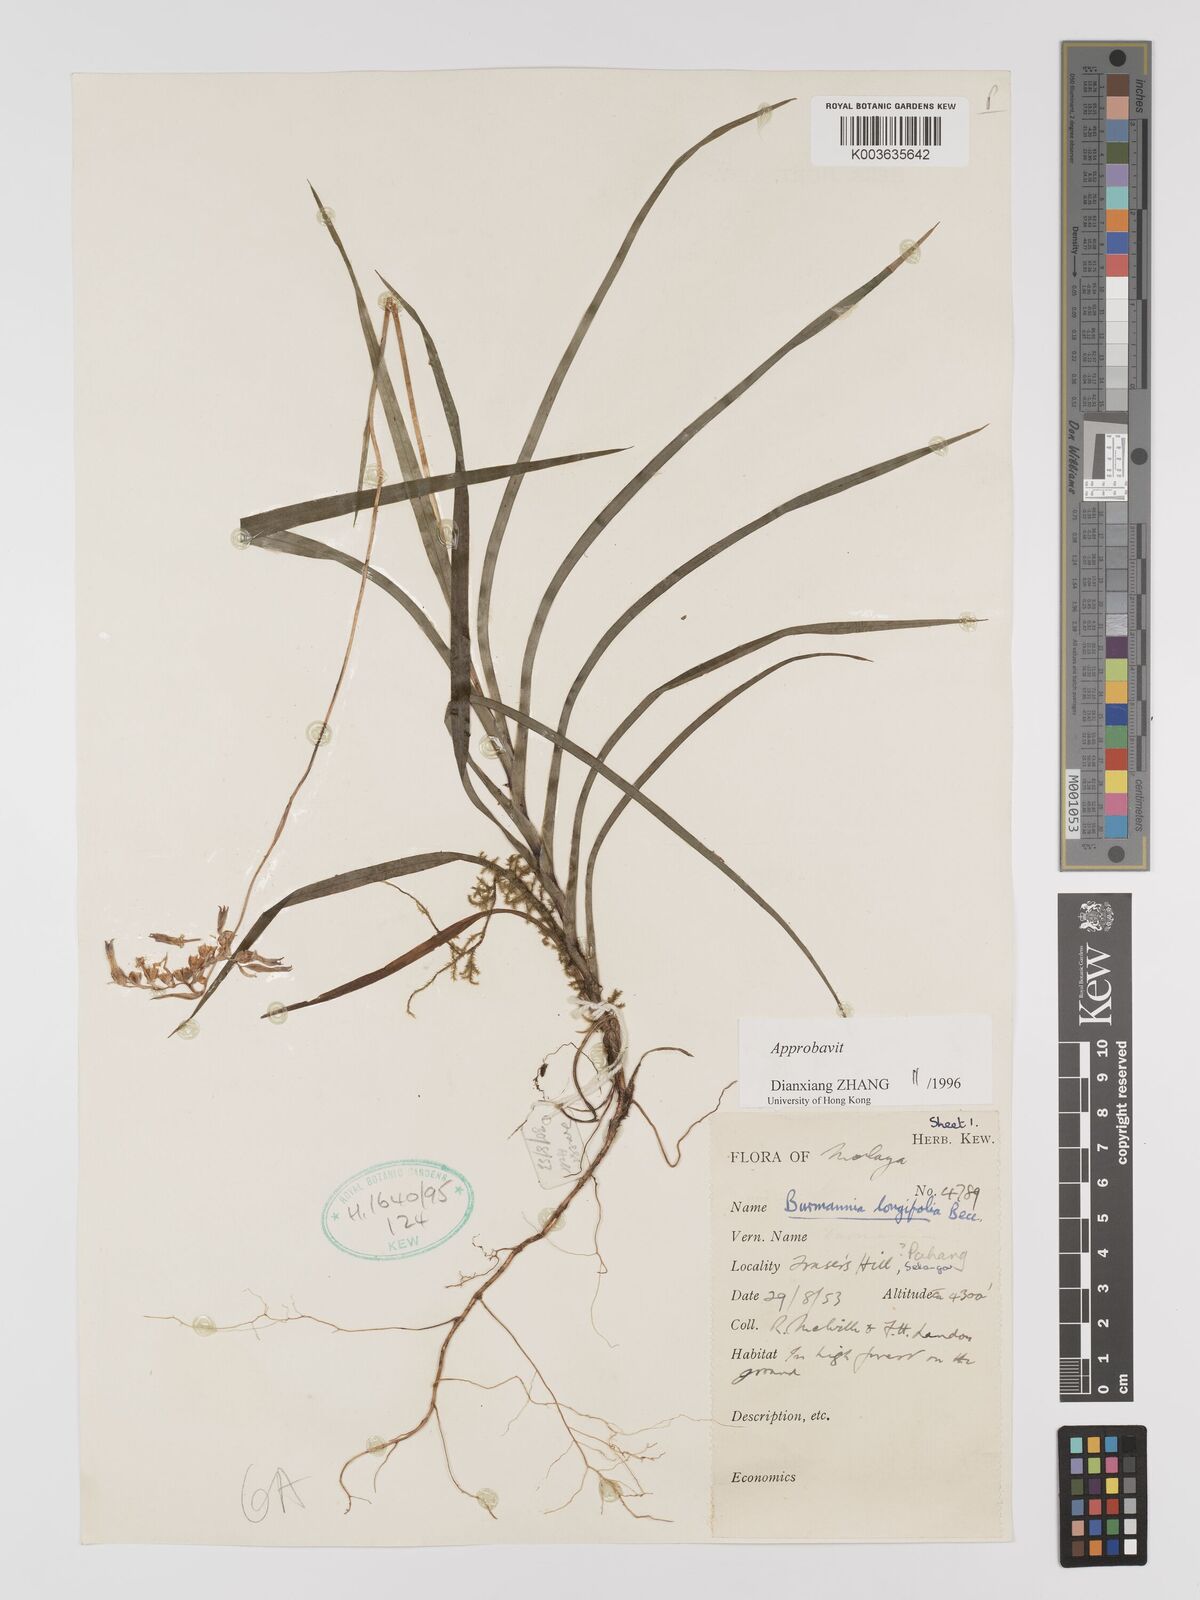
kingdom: Plantae
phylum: Tracheophyta
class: Liliopsida
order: Dioscoreales
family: Burmanniaceae
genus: Burmannia
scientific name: Burmannia longifolia
